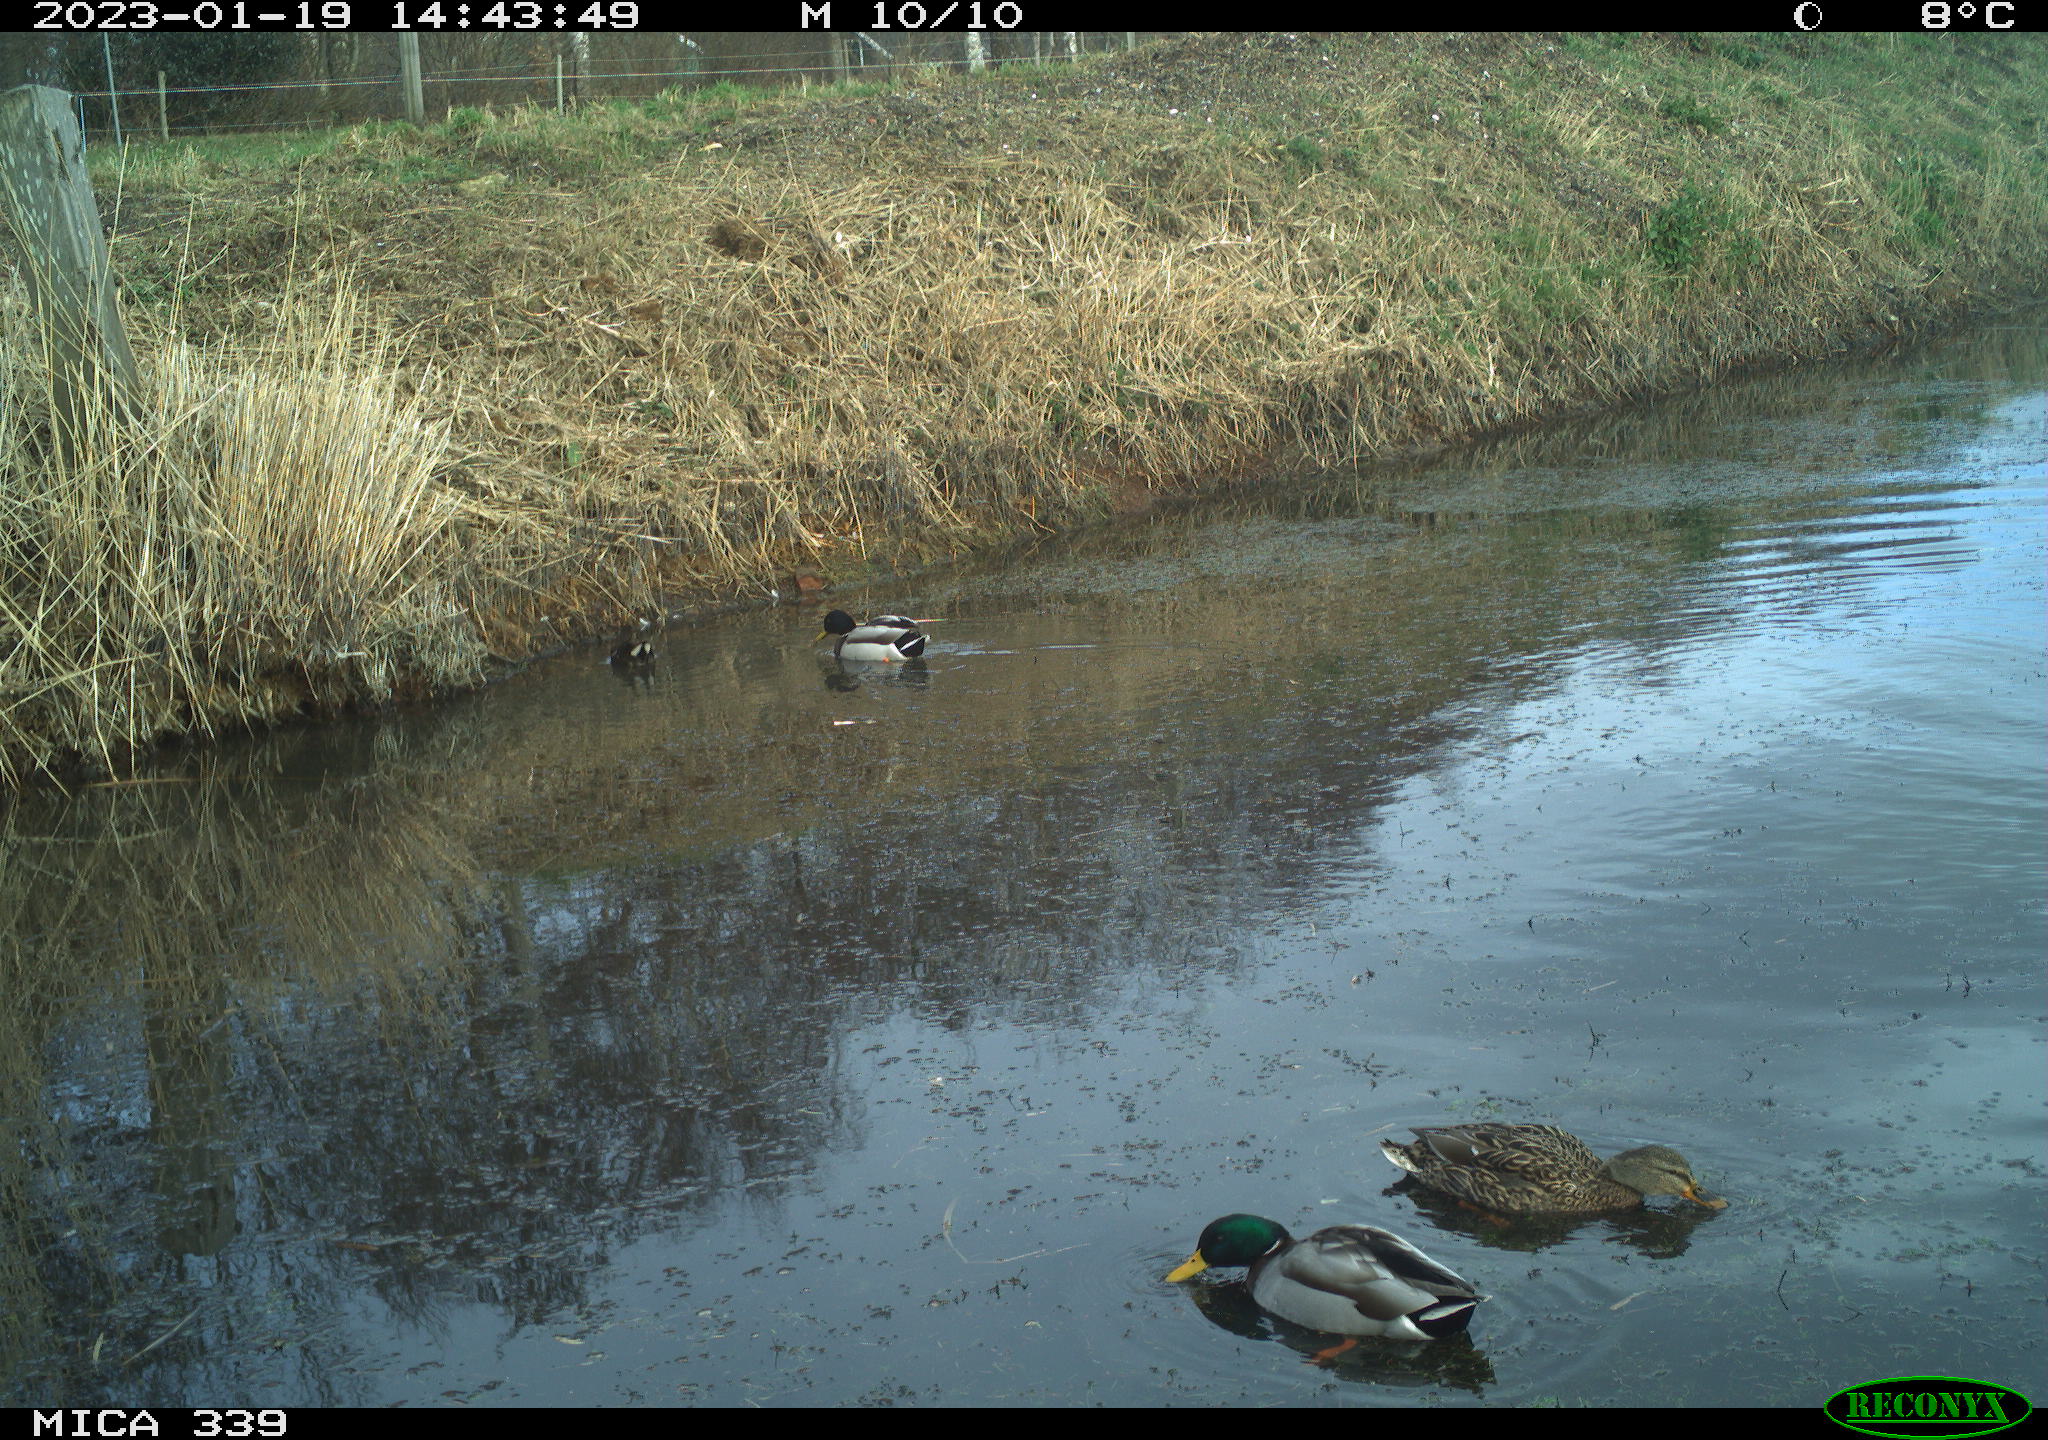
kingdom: Animalia
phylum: Chordata
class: Aves
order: Anseriformes
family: Anatidae
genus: Anas
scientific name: Anas
